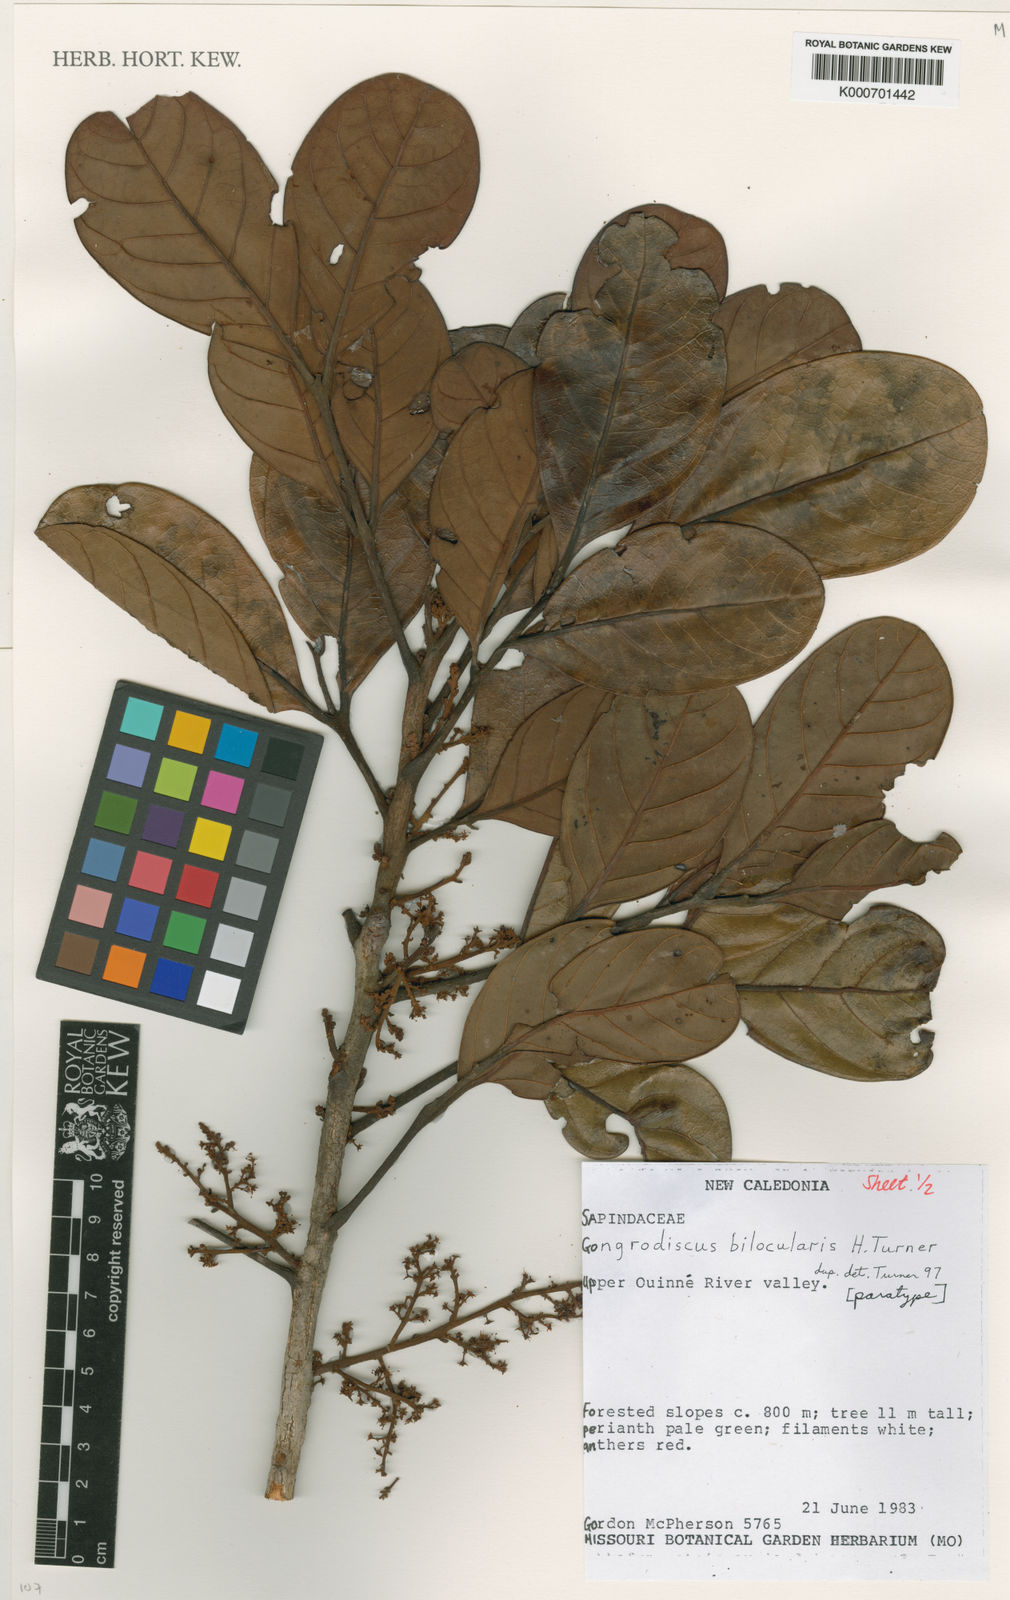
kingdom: Plantae
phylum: Tracheophyta
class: Magnoliopsida
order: Sapindales
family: Sapindaceae
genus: Gongrodiscus
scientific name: Gongrodiscus bilocularis
